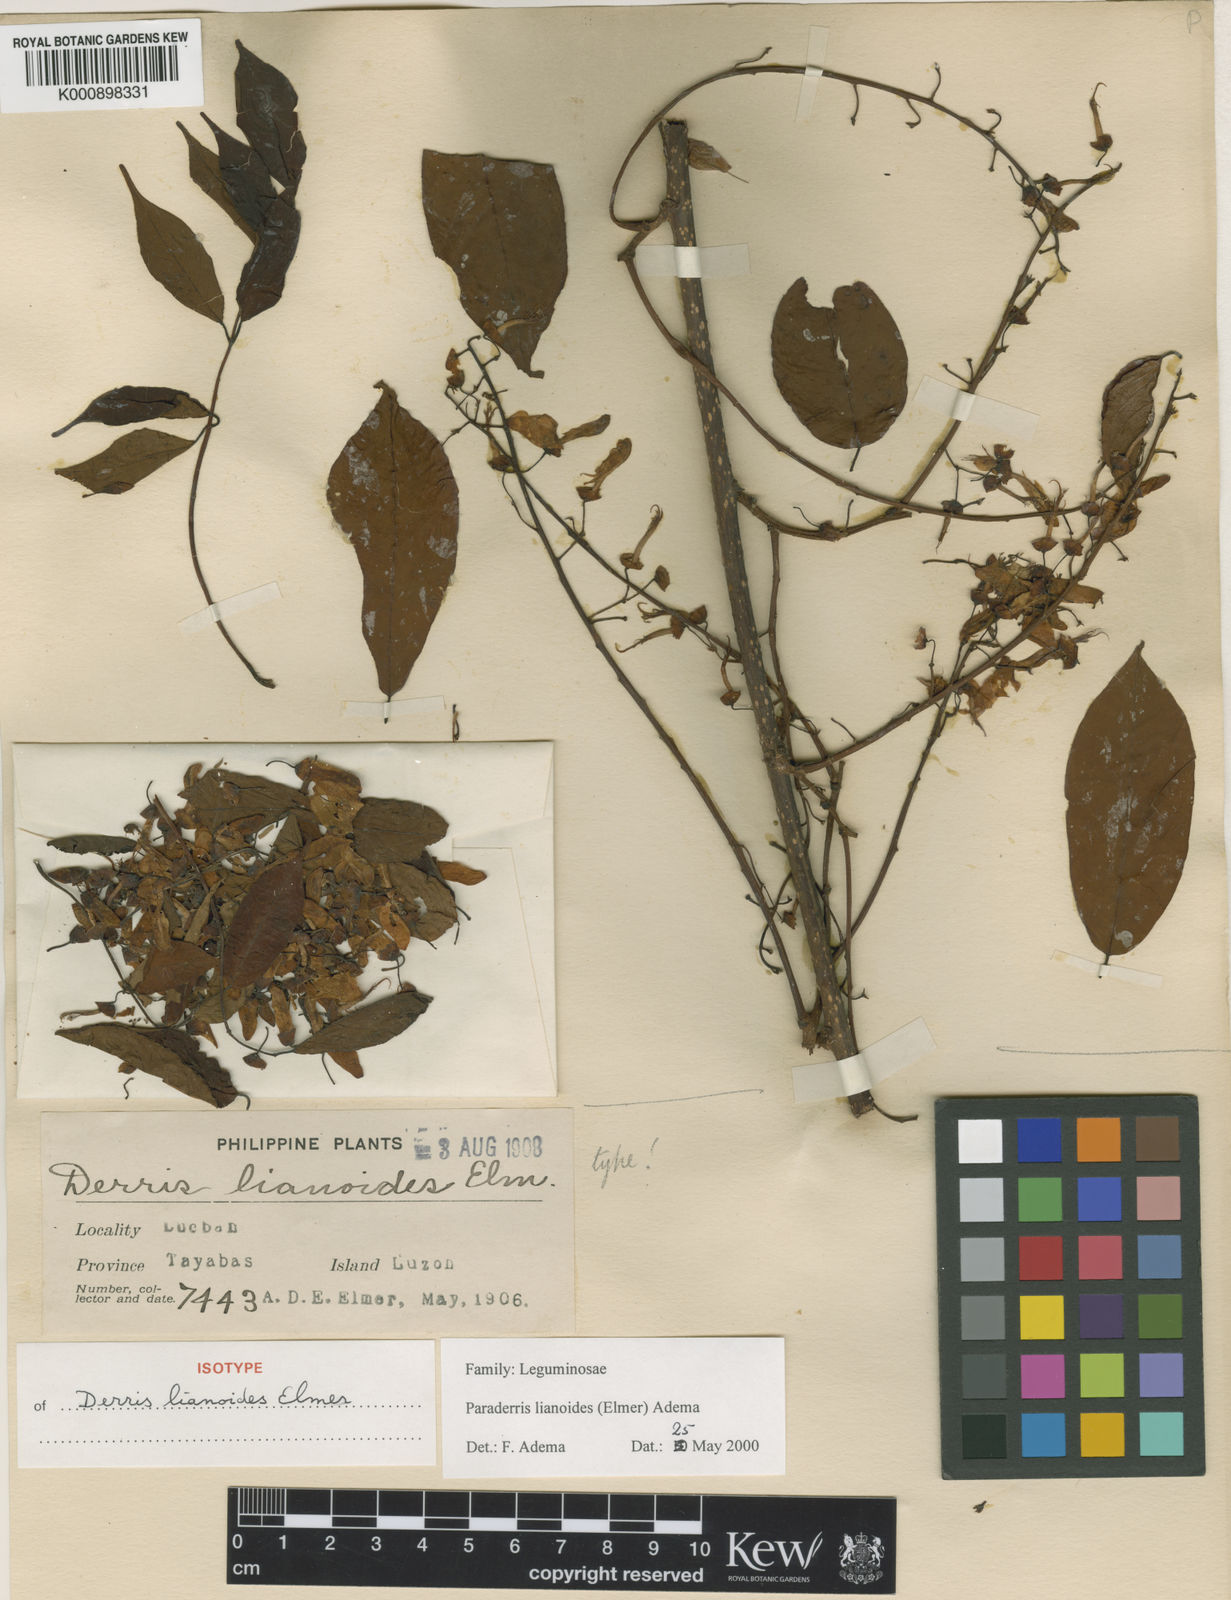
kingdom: Plantae
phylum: Tracheophyta
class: Magnoliopsida
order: Fabales
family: Fabaceae
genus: Derris
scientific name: Derris lianoides
